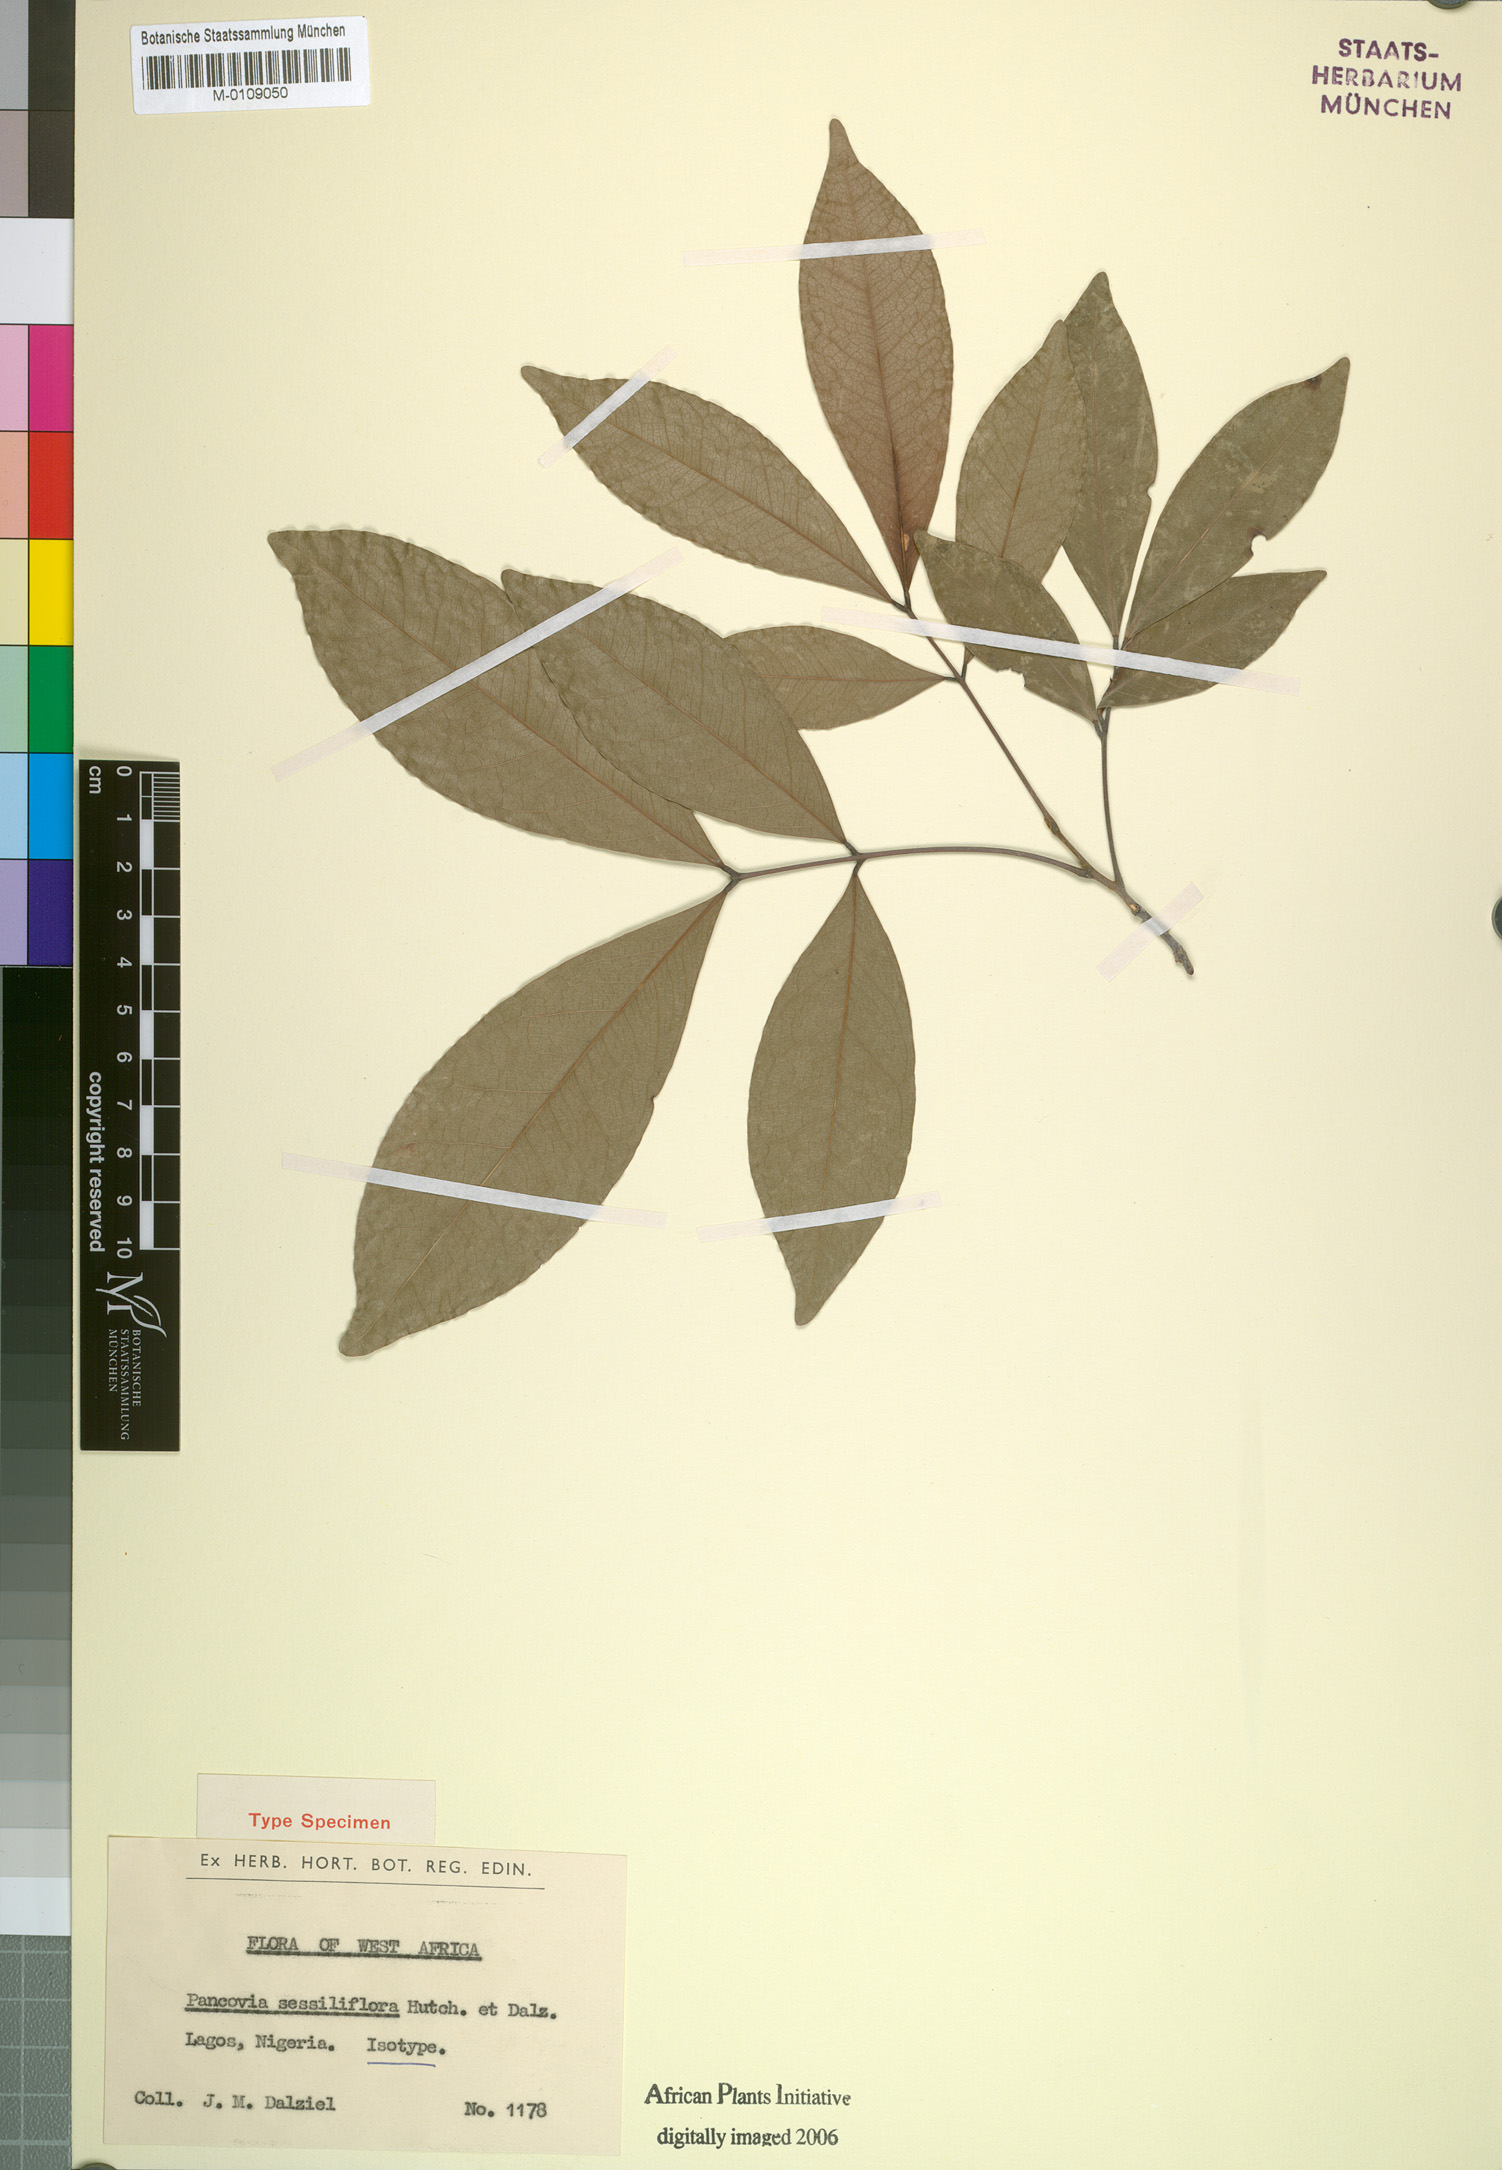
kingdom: Plantae
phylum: Tracheophyta
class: Magnoliopsida
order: Sapindales
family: Sapindaceae
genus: Pancovia
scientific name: Pancovia sessiliflora
